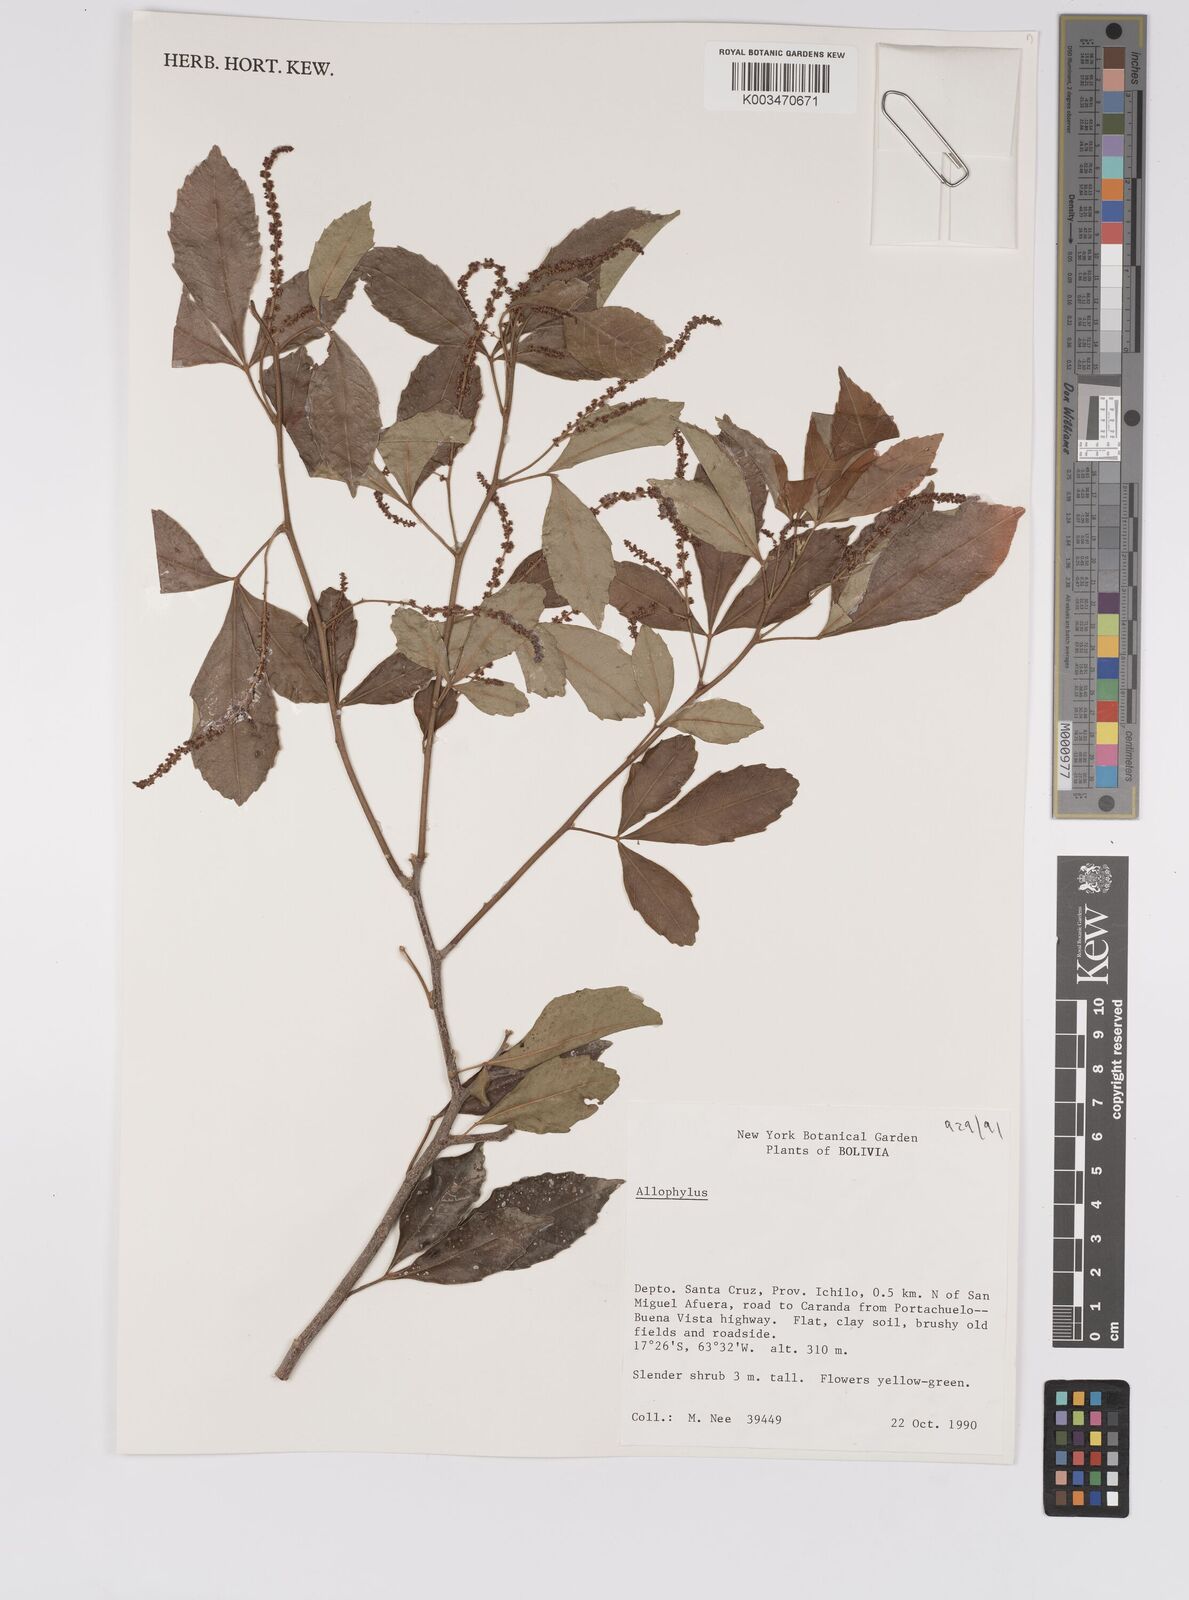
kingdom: Plantae
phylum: Tracheophyta
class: Magnoliopsida
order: Sapindales
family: Sapindaceae
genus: Allophylus
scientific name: Allophylus
